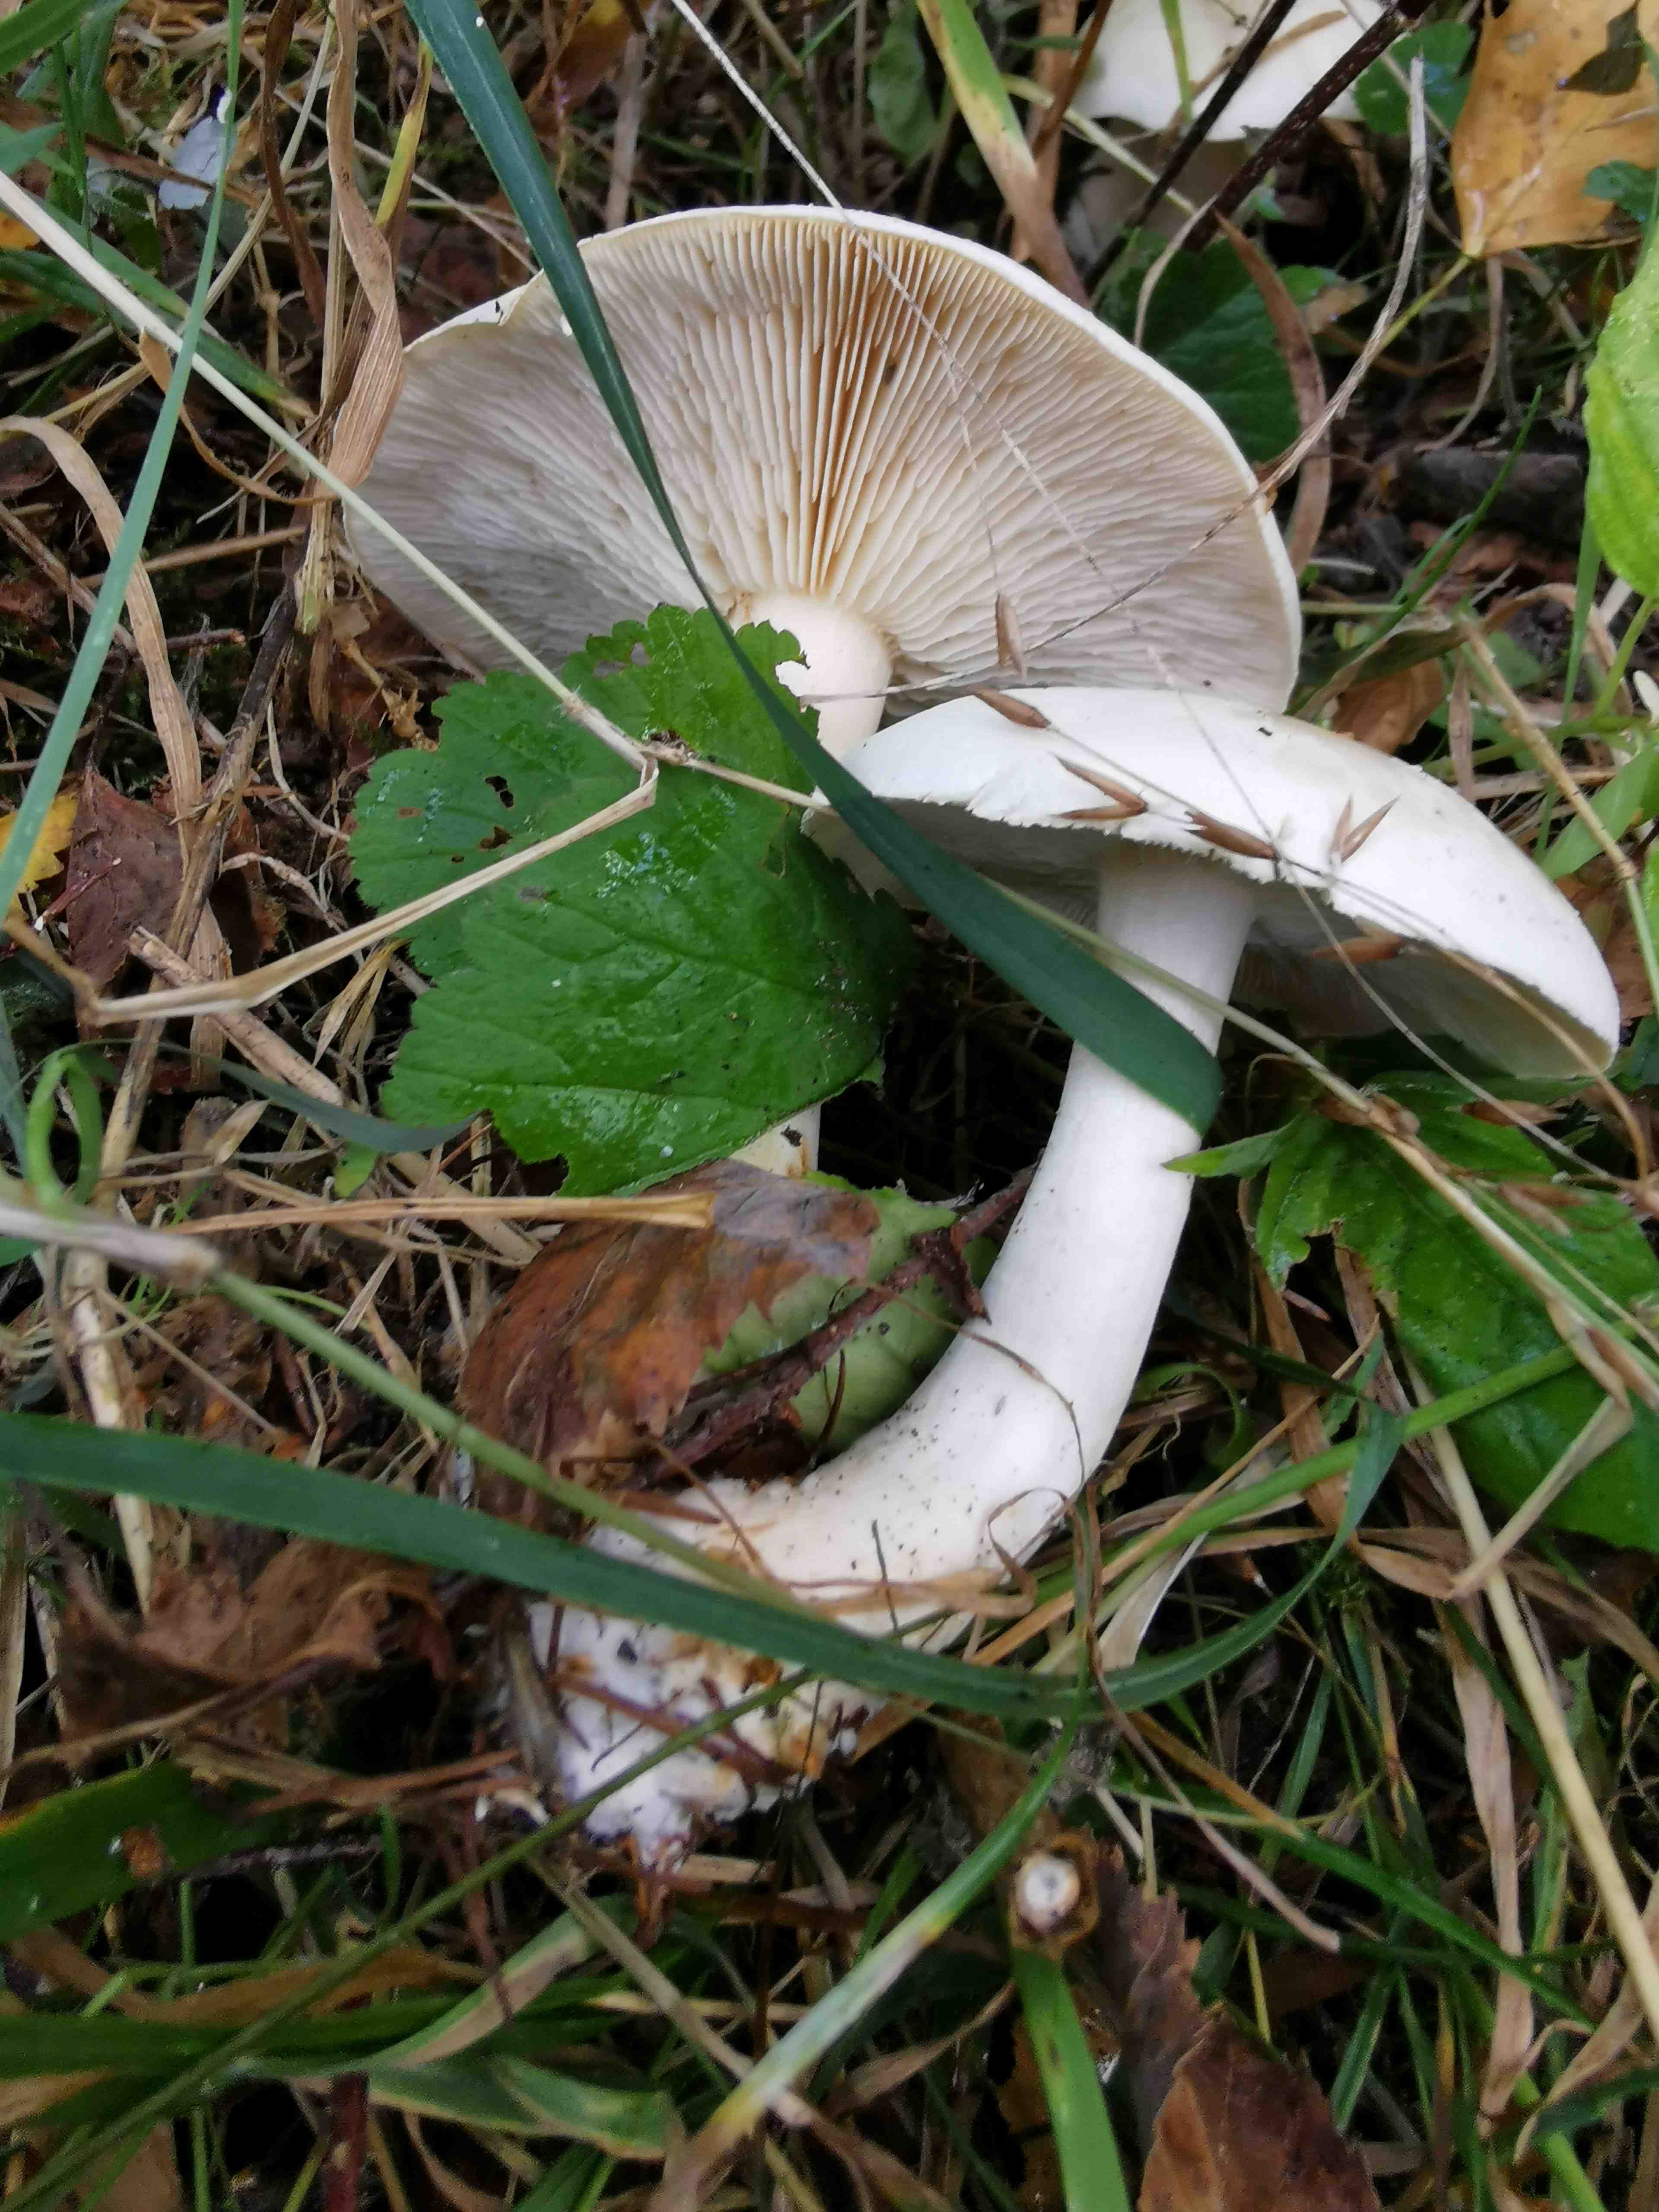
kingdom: Fungi
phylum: Basidiomycota
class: Agaricomycetes
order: Agaricales
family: Tricholomataceae
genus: Tricholoma
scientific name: Tricholoma stiparophyllum
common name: hvid ridderhat
